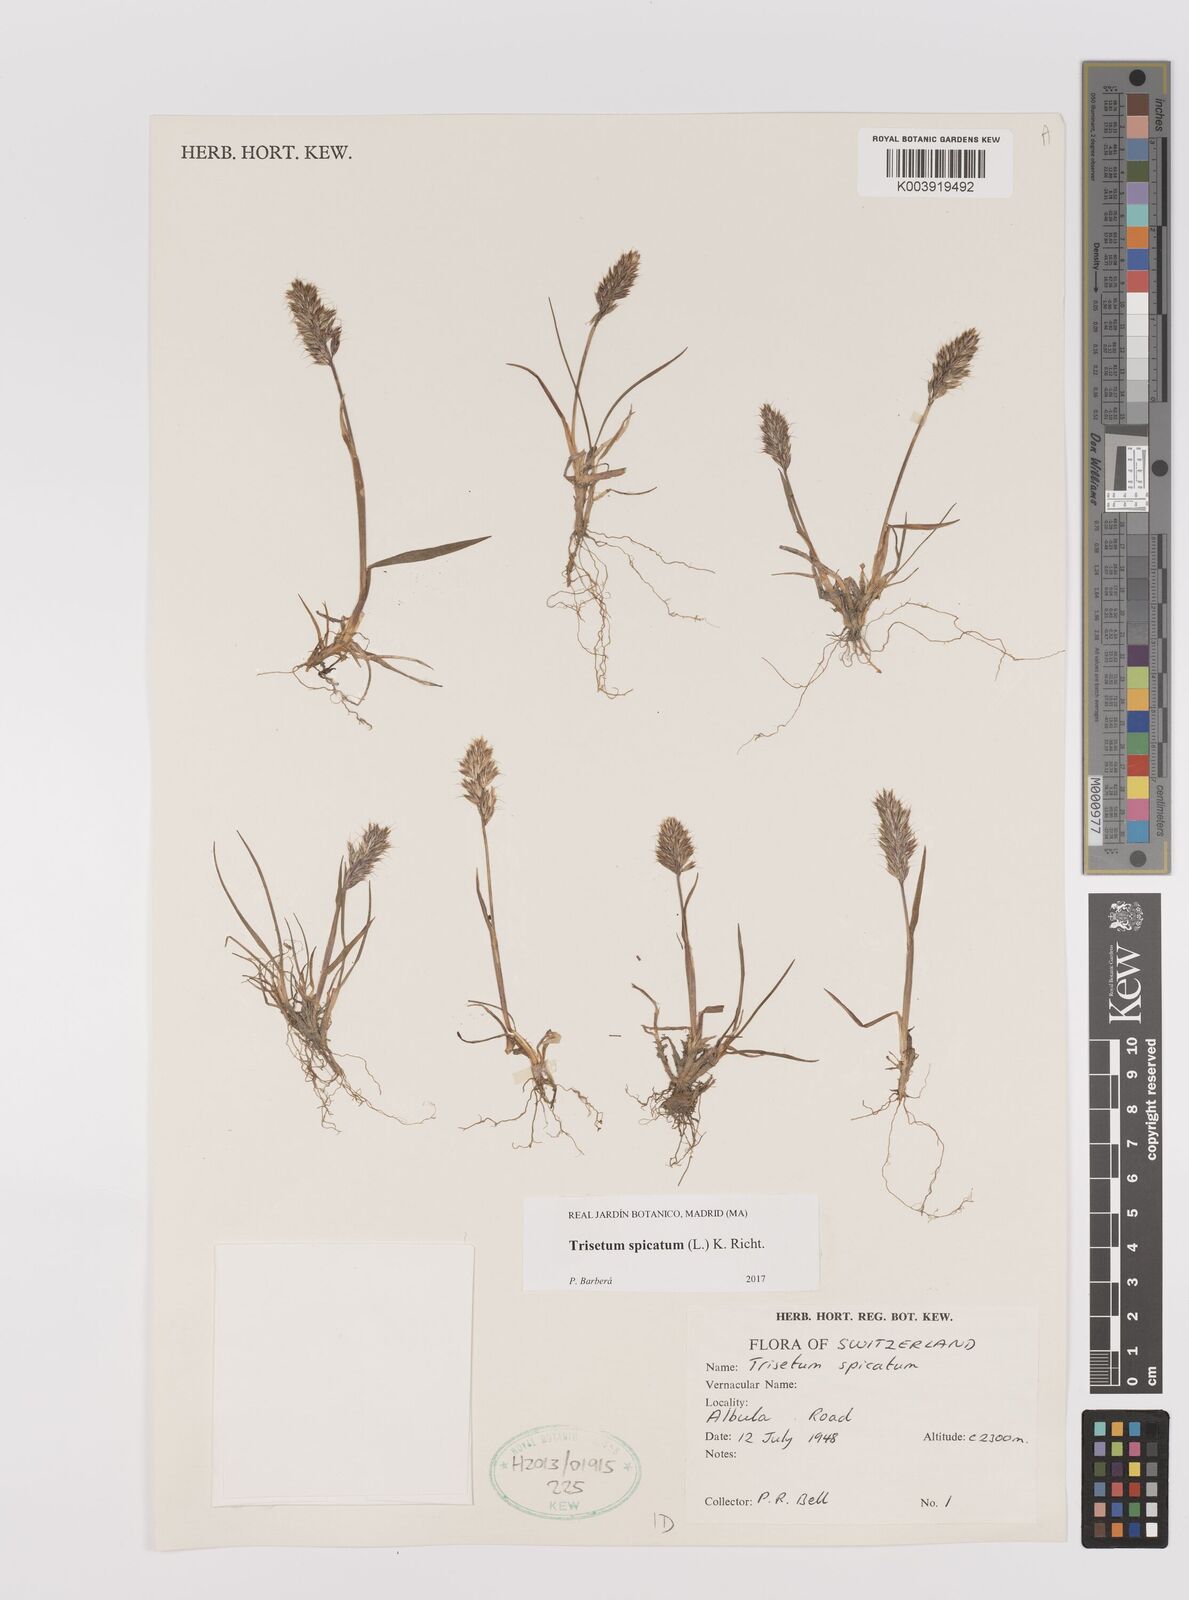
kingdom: Plantae
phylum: Tracheophyta
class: Liliopsida
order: Poales
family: Poaceae
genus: Koeleria
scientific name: Koeleria spicata
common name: Mountain trisetum
